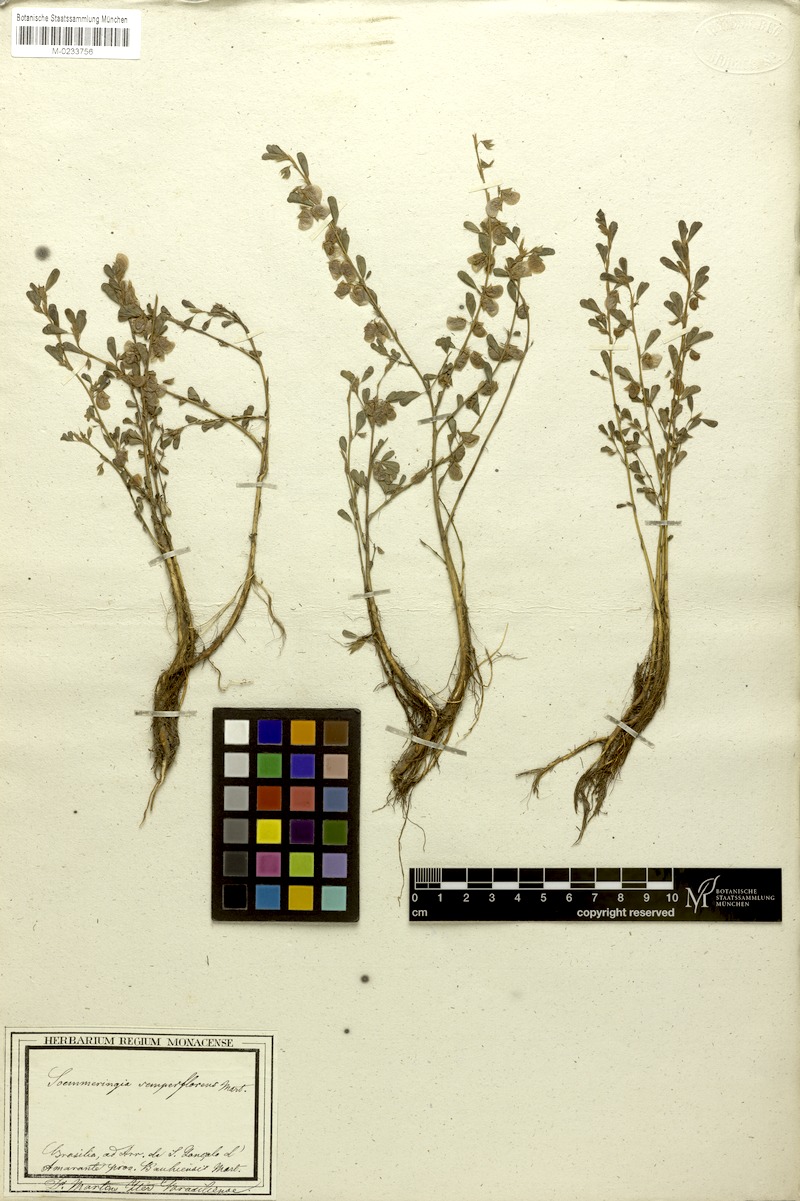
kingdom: Plantae
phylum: Tracheophyta
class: Magnoliopsida
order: Fabales
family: Fabaceae
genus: Soemmeringia
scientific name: Soemmeringia semperflorens
